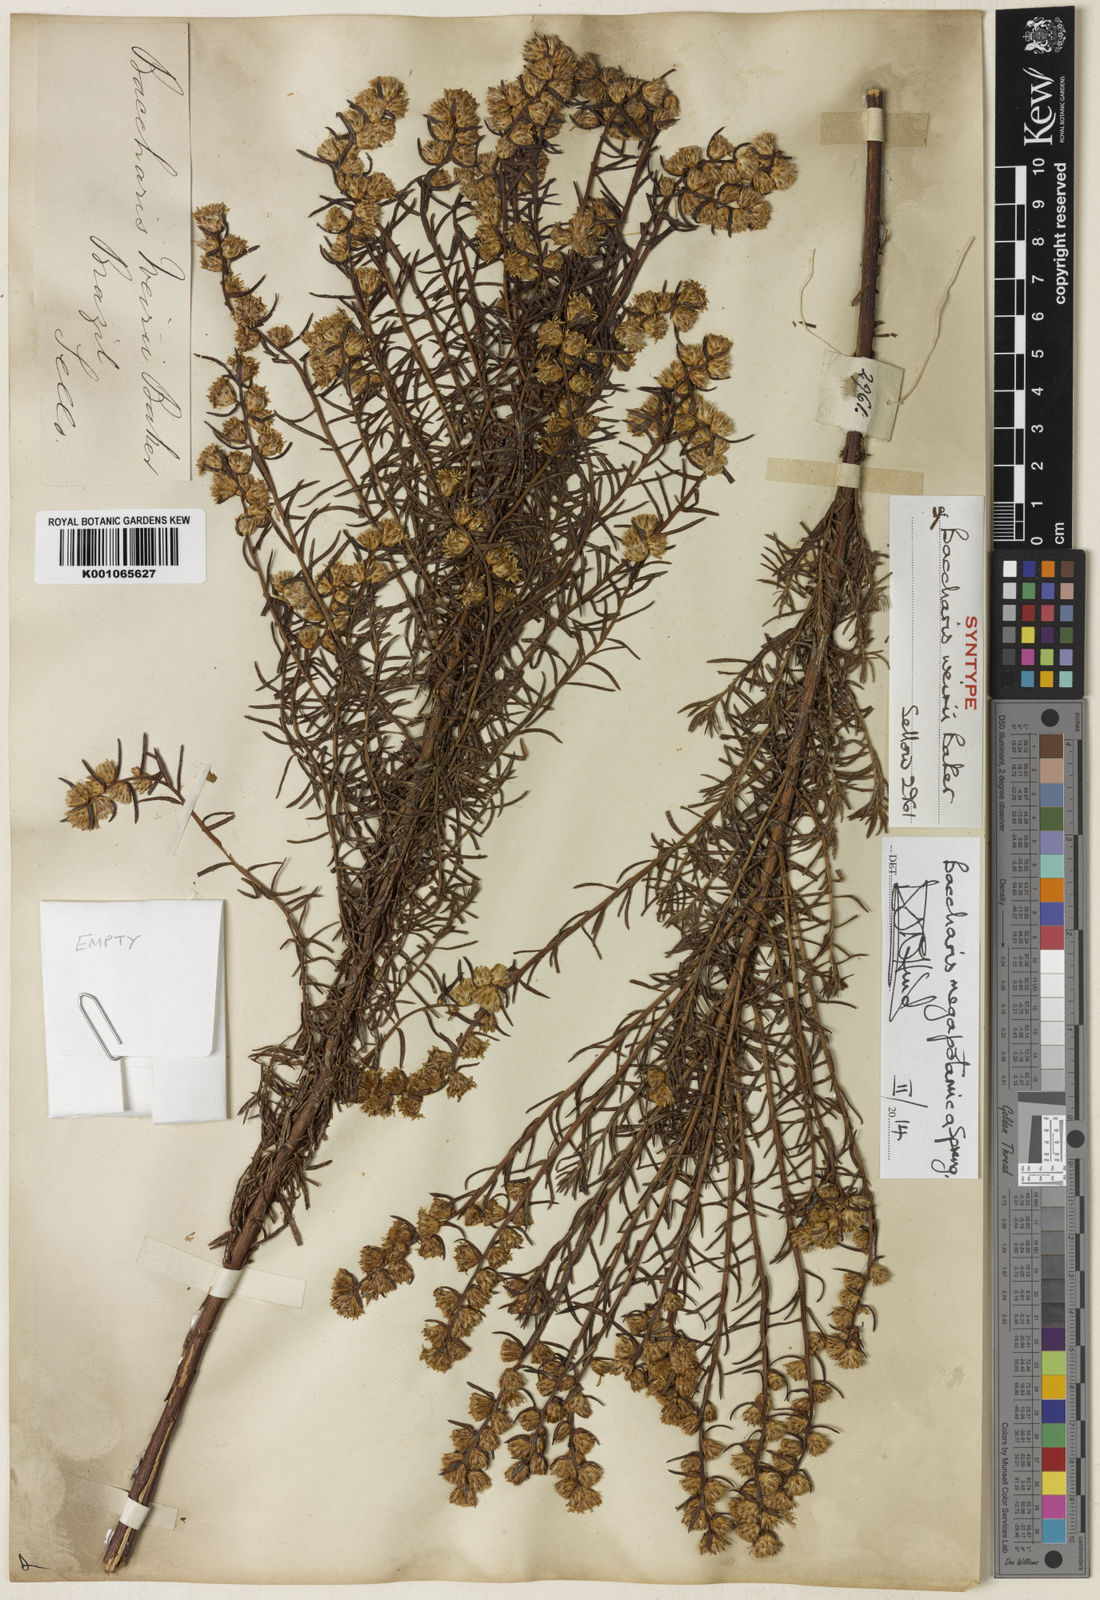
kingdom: Plantae
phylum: Tracheophyta
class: Magnoliopsida
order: Asterales
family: Asteraceae
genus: Baccharis
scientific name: Baccharis megapotamica
